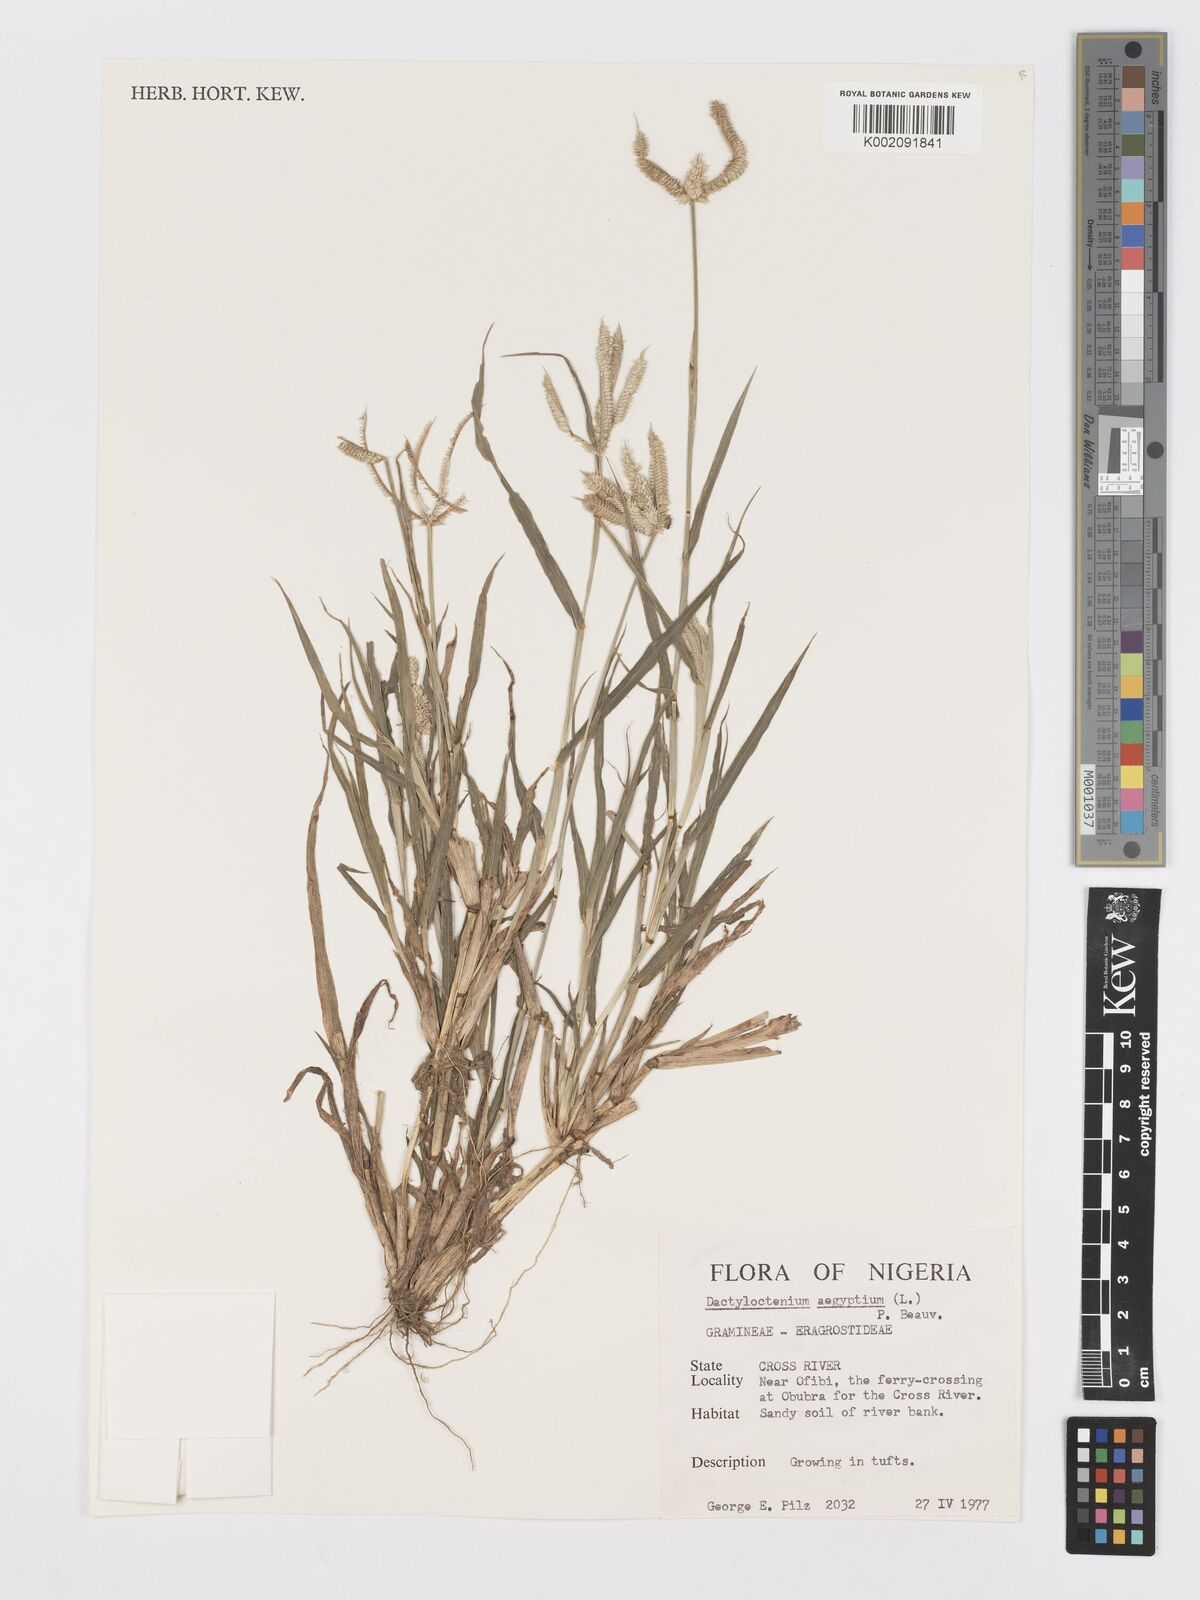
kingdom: Plantae
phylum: Tracheophyta
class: Liliopsida
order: Poales
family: Poaceae
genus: Dactyloctenium
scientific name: Dactyloctenium aegyptium
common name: Egyptian grass
